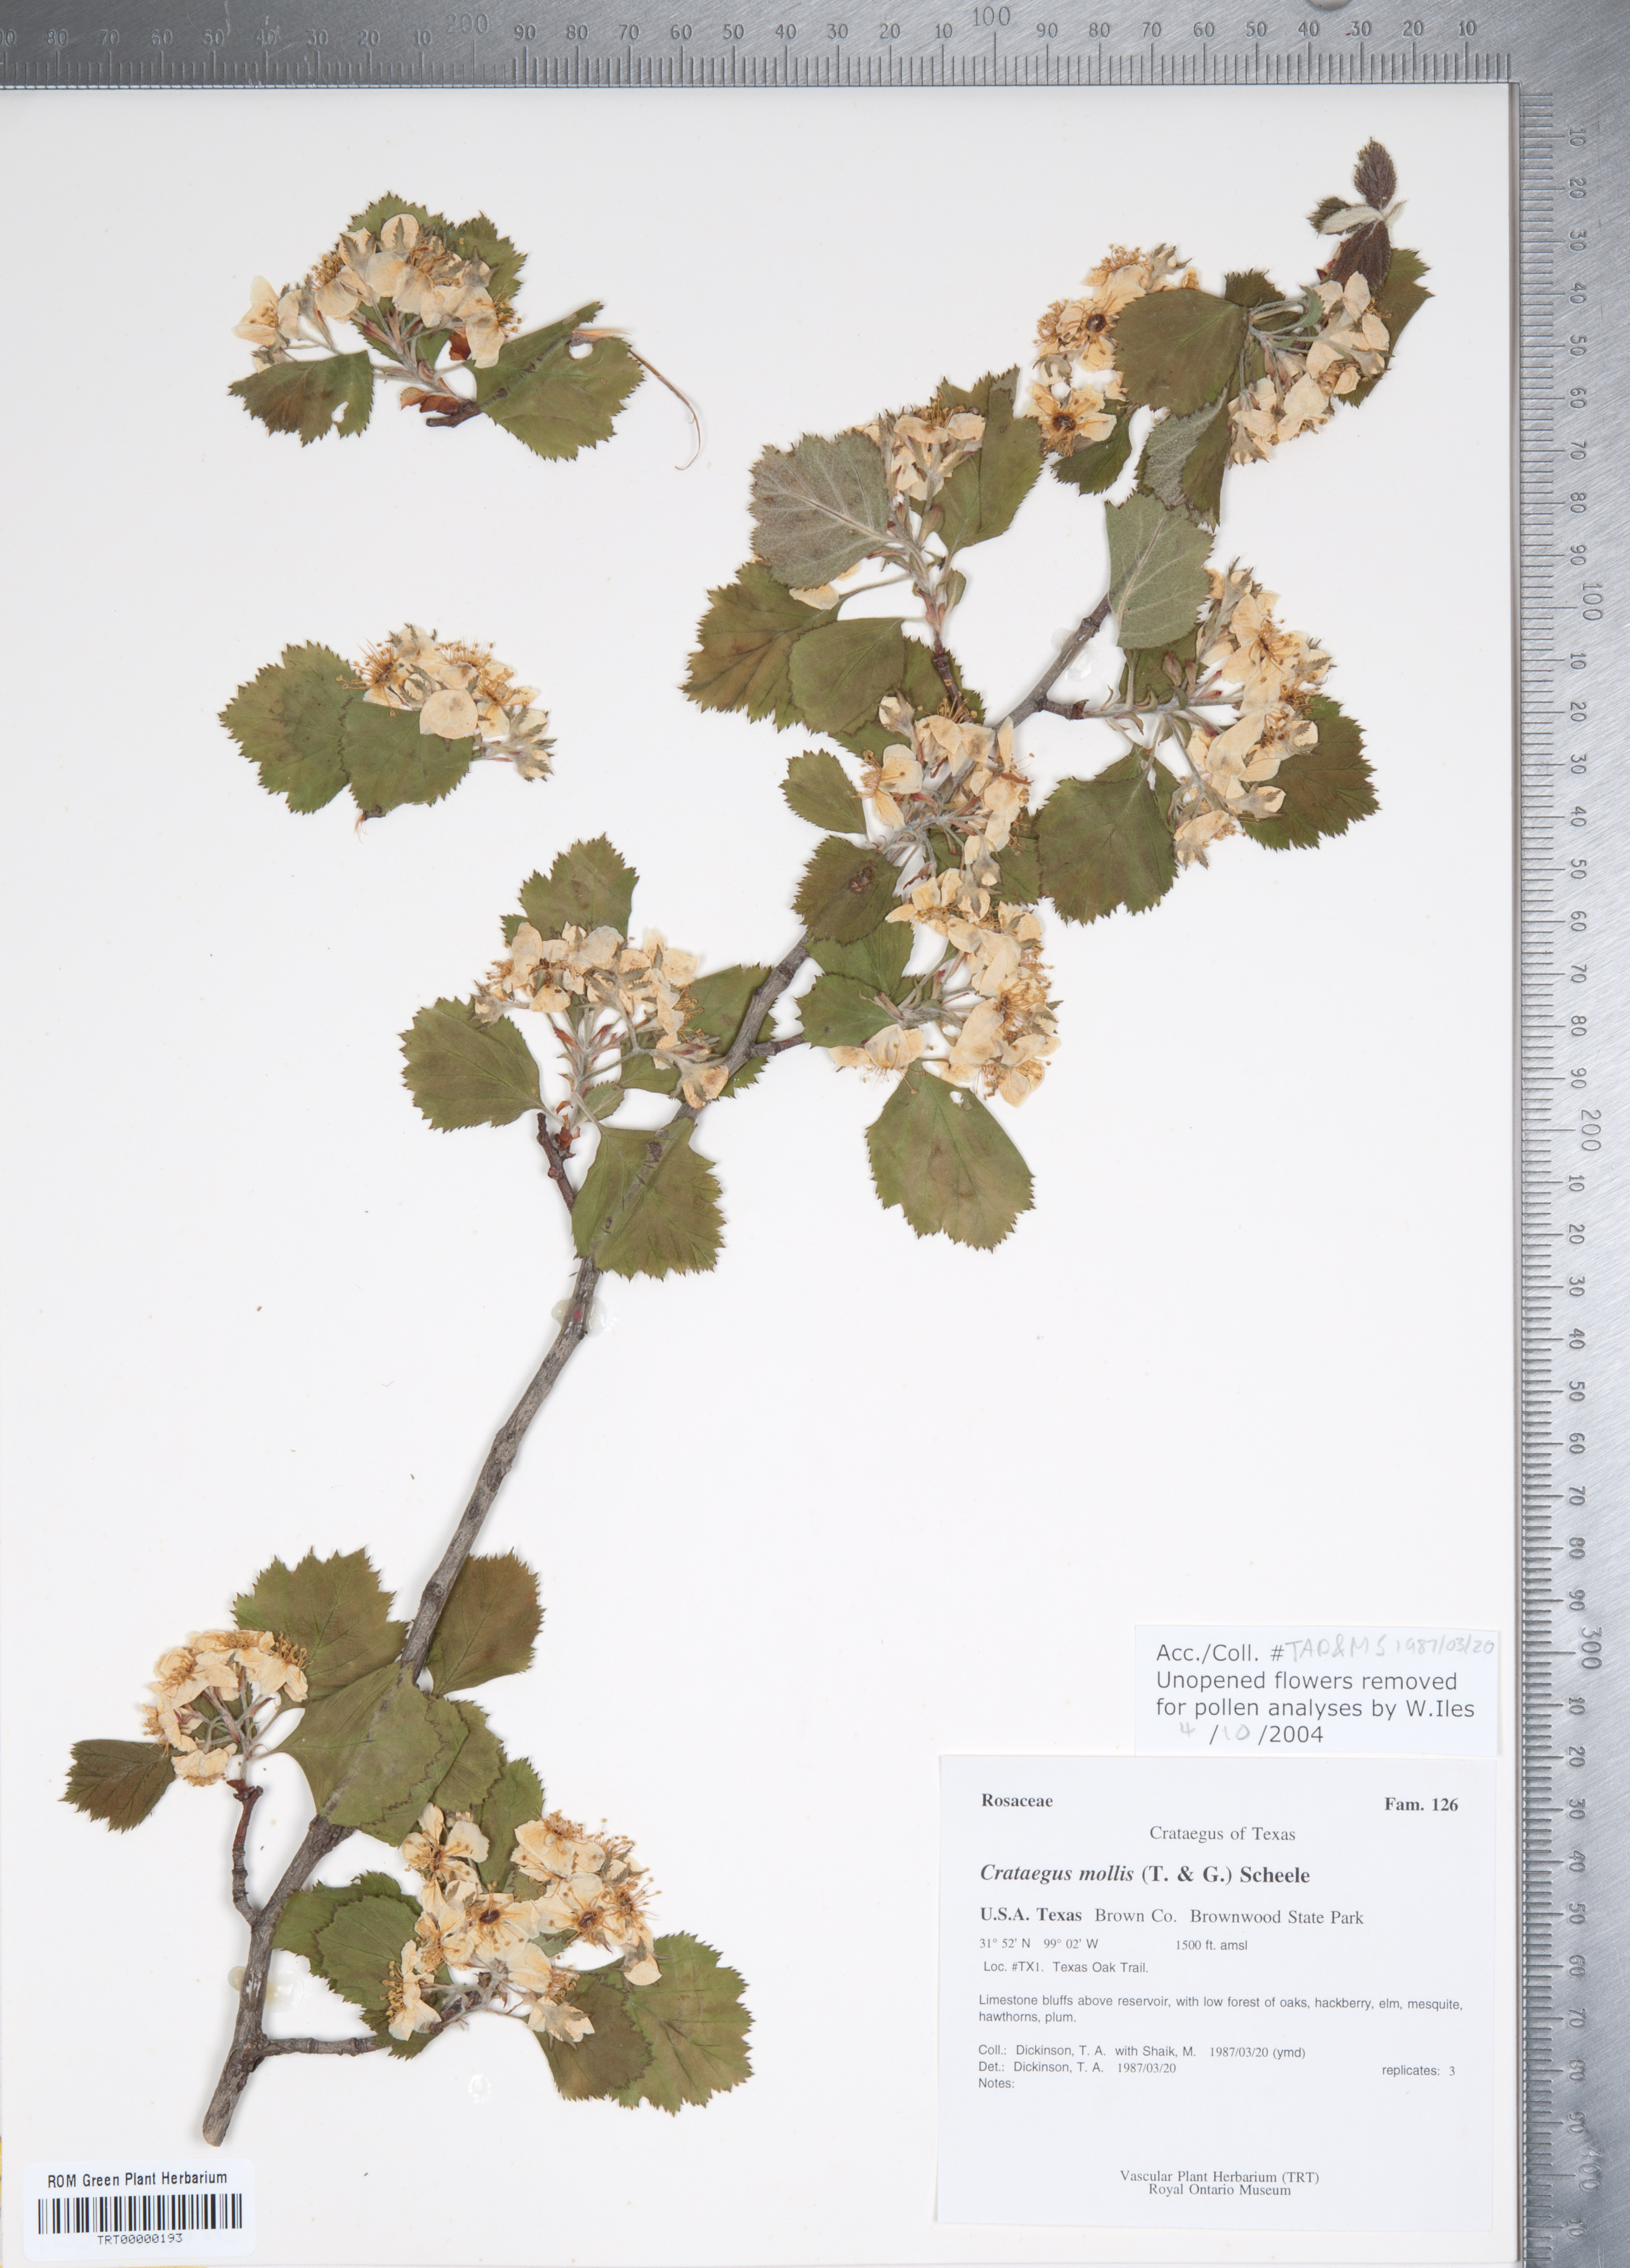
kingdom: Plantae
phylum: Tracheophyta
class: Magnoliopsida
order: Rosales
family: Rosaceae
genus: Crataegus
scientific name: Crataegus mollis
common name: Downy hawthorn
